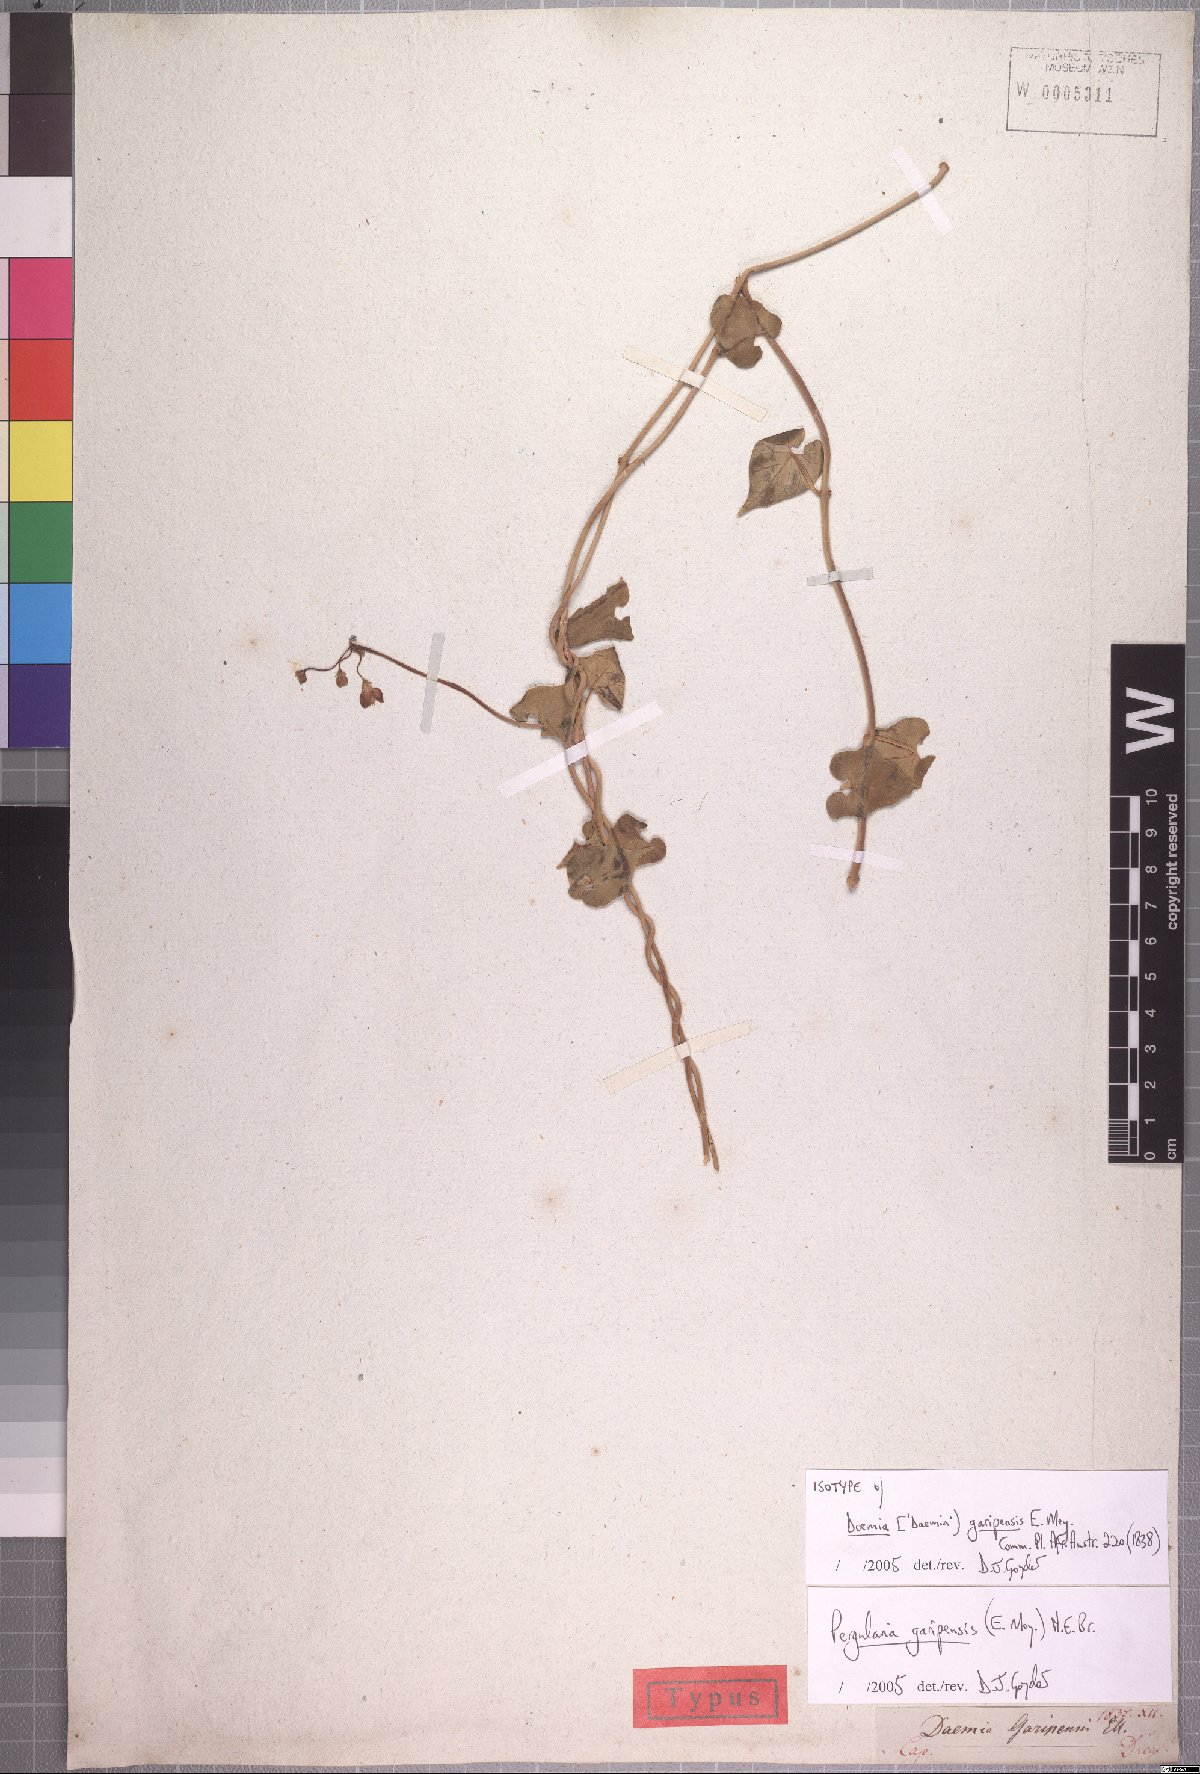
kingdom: Plantae
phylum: Tracheophyta
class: Magnoliopsida
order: Gentianales
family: Apocynaceae
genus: Pergularia
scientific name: Pergularia daemia
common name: Trellis-vine
